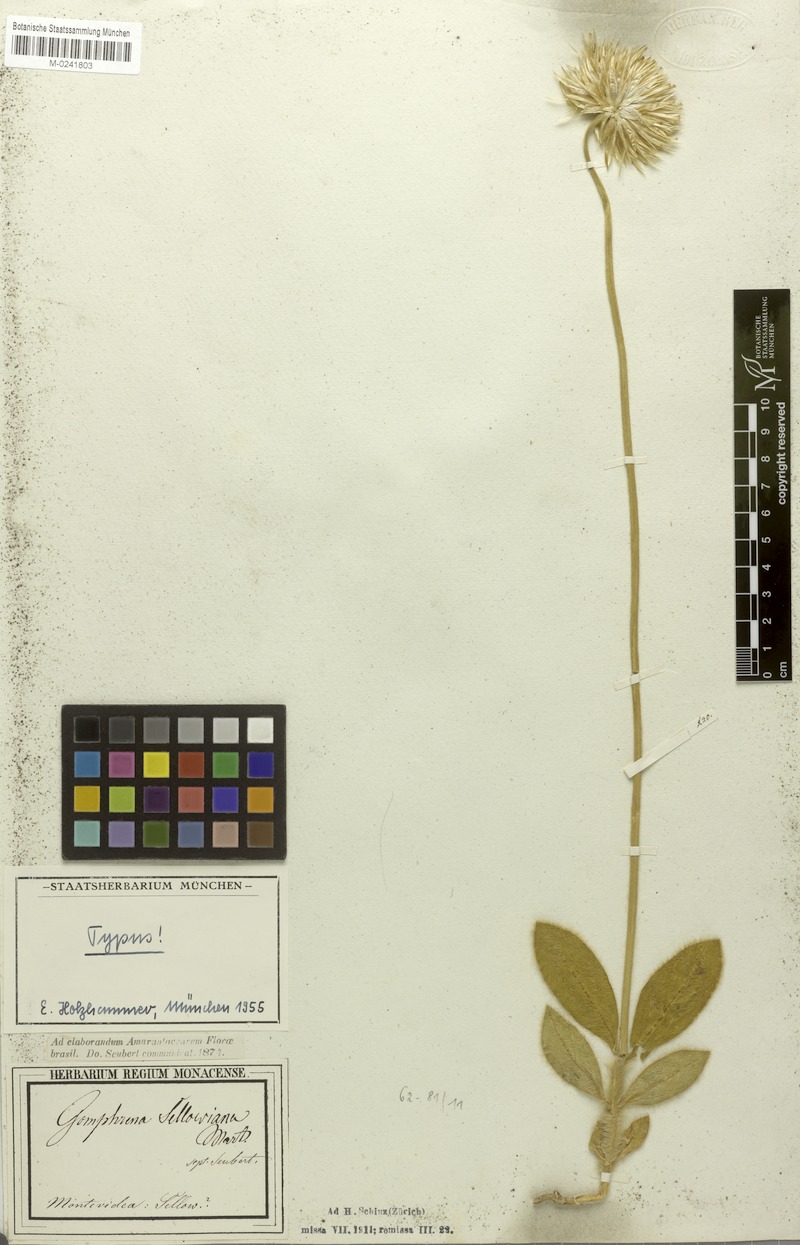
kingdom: Plantae
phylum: Tracheophyta
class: Magnoliopsida
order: Caryophyllales
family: Amaranthaceae
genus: Gomphrena
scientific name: Gomphrena sellowiana
